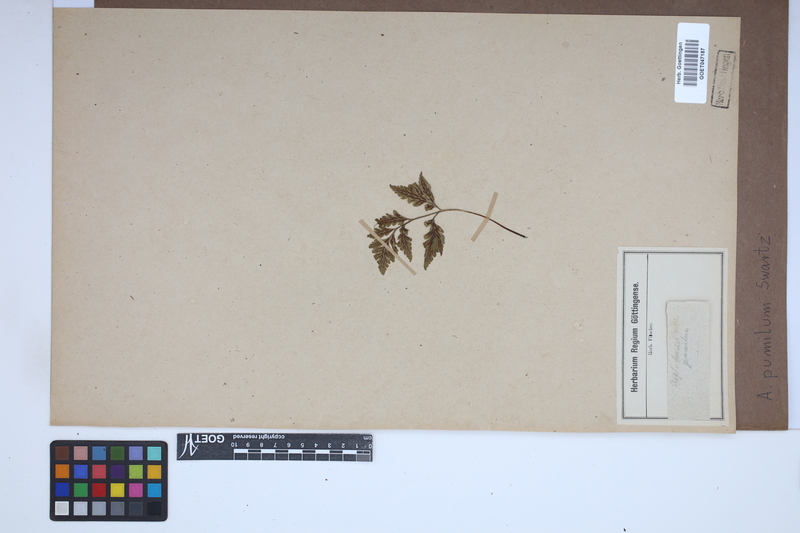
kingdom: Plantae
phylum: Tracheophyta
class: Polypodiopsida
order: Polypodiales
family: Aspleniaceae
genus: Asplenium
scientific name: Asplenium pumilum
